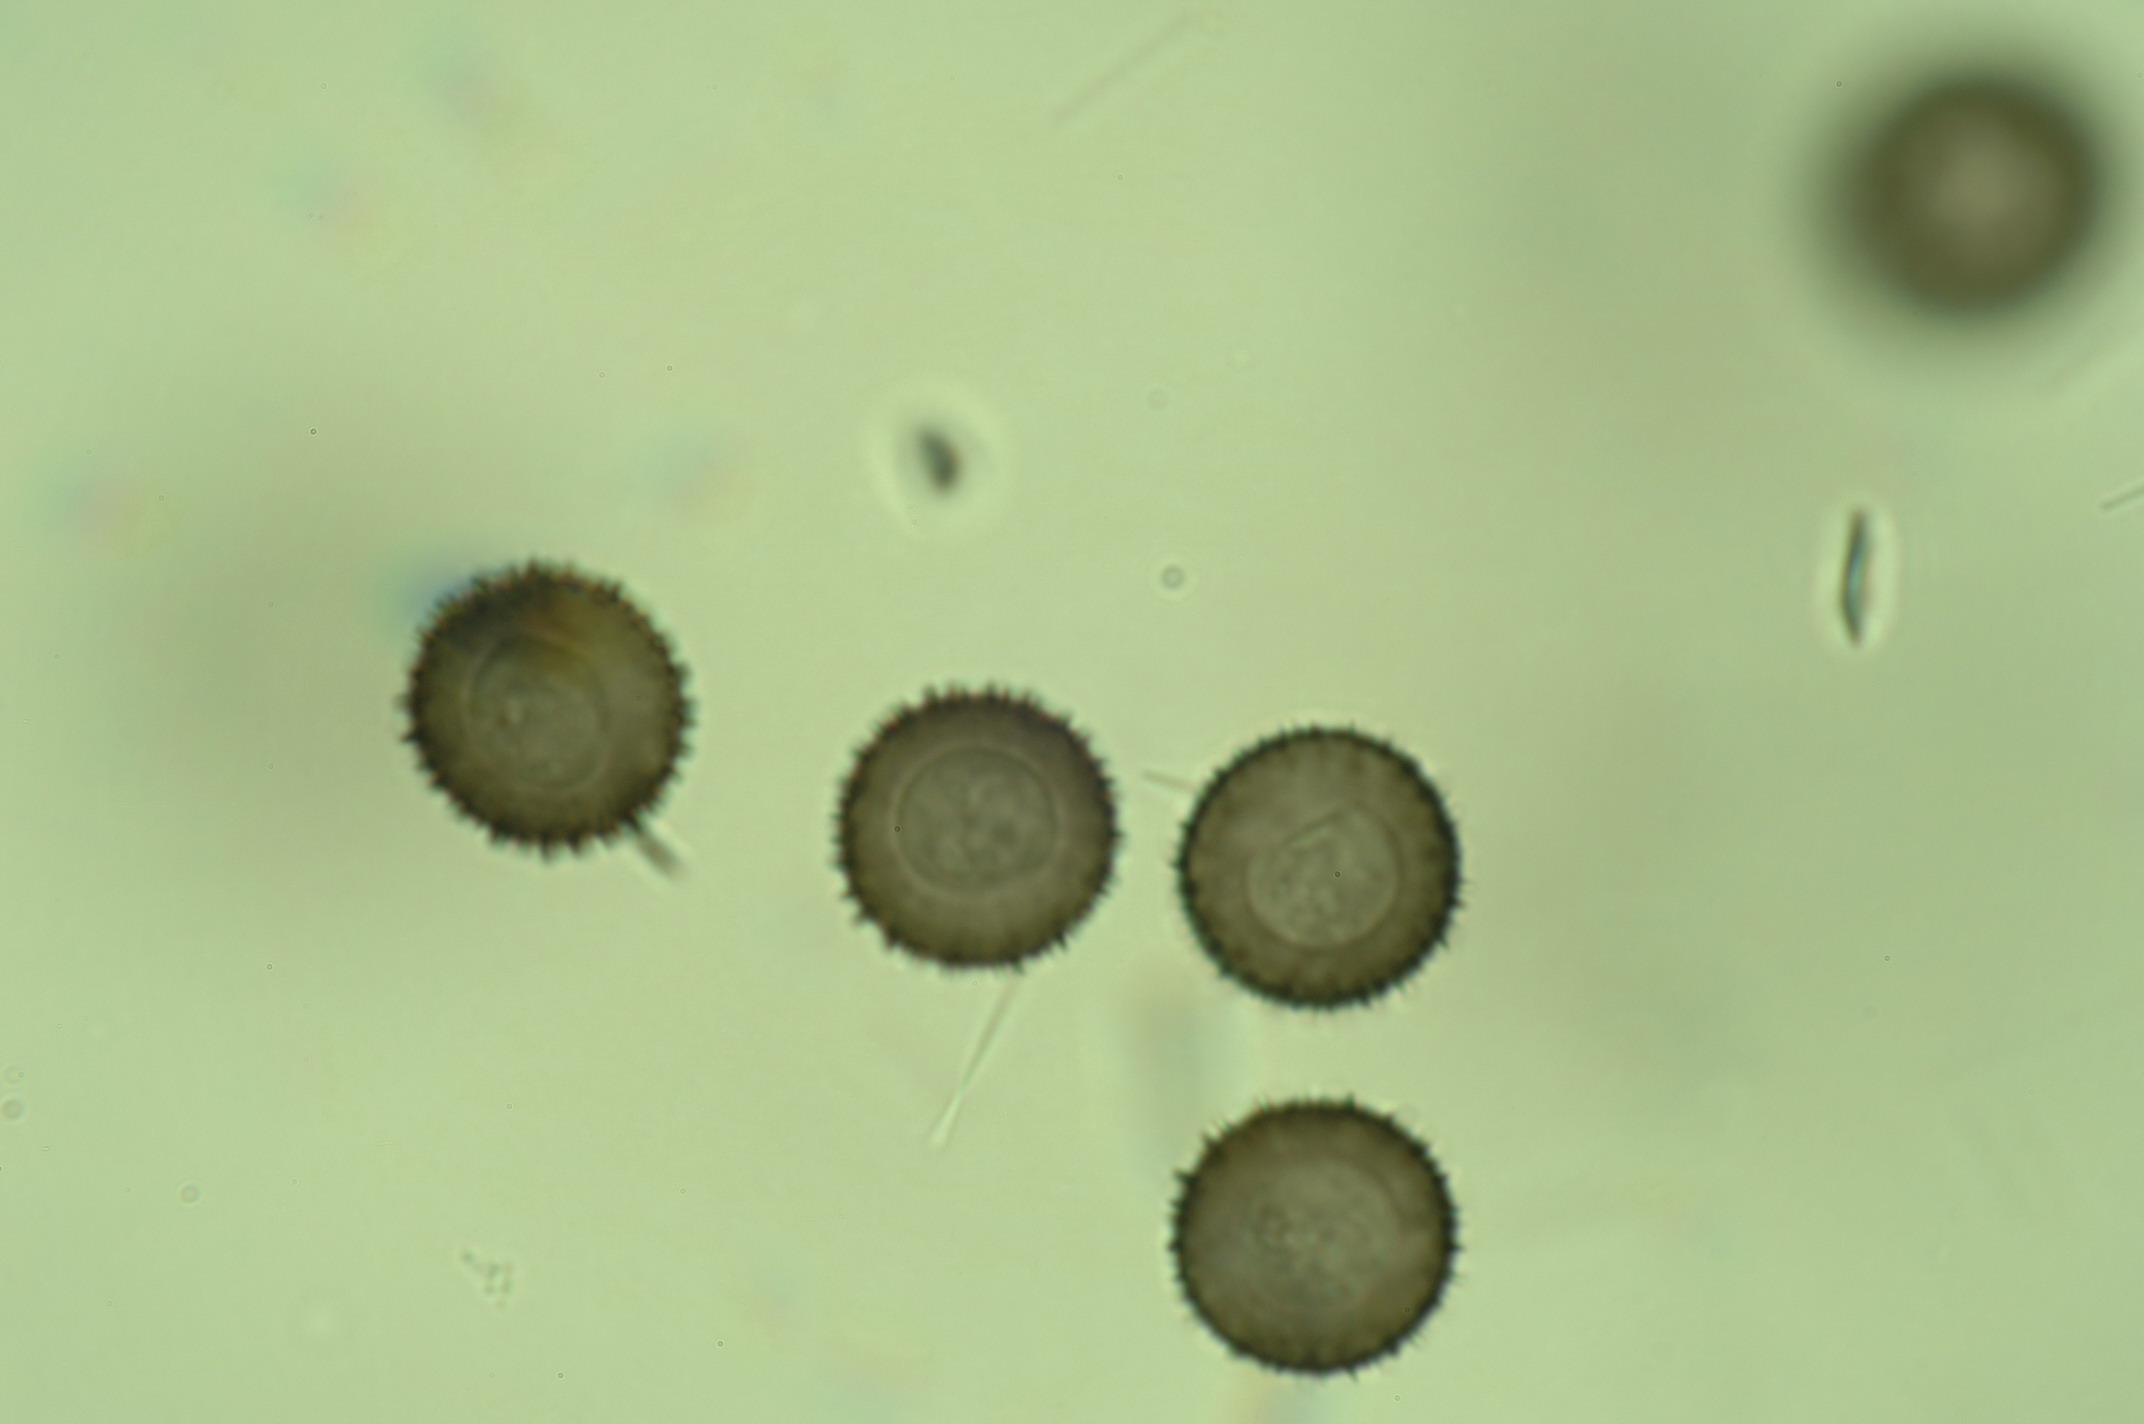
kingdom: Protozoa
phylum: Mycetozoa
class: Myxomycetes
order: Stemonitidales
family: Stemonitidaceae
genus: Lamproderma
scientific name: Lamproderma granulosum
